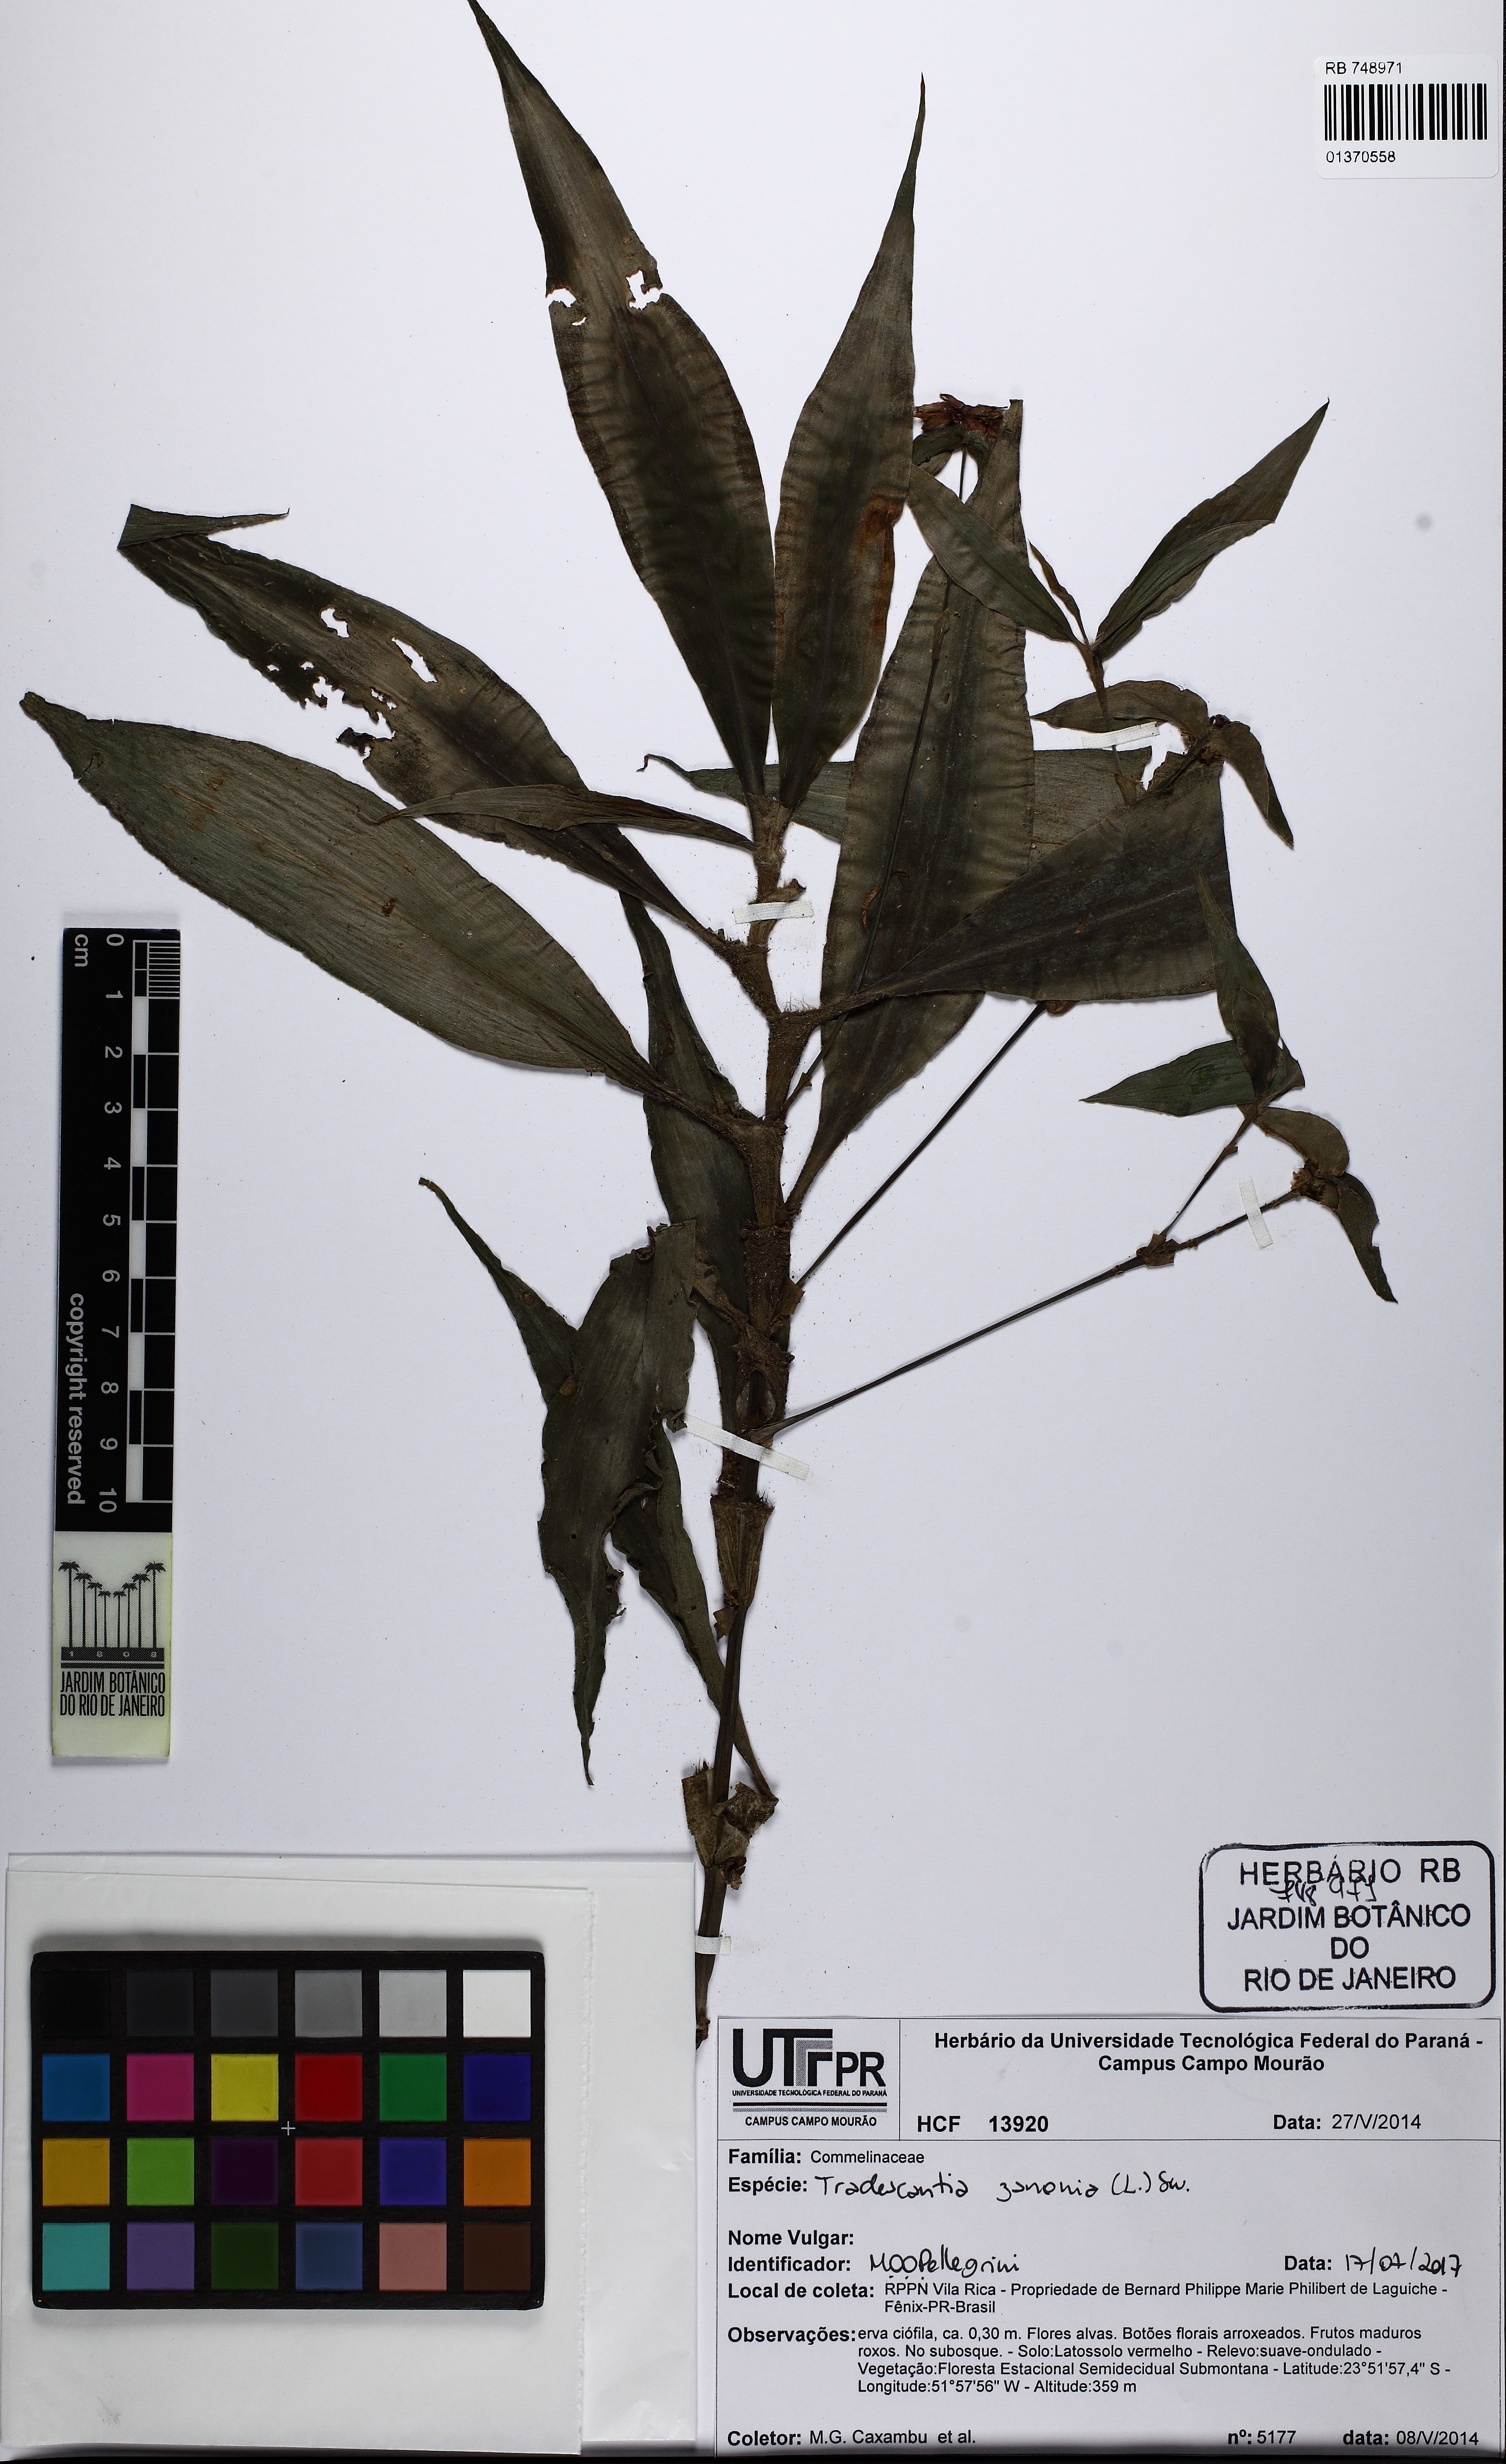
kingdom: Plantae
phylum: Tracheophyta
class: Liliopsida
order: Commelinales
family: Commelinaceae
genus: Tradescantia
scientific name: Tradescantia zanonia
